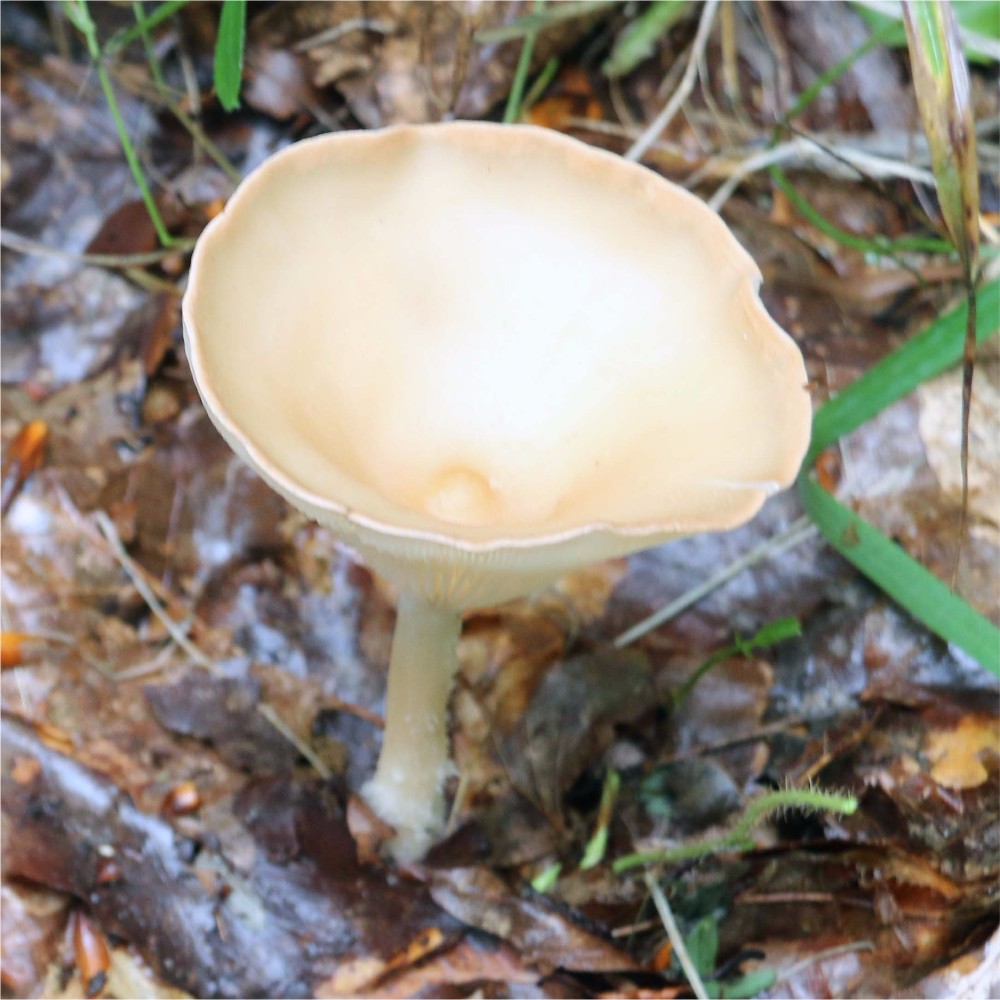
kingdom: Fungi
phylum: Basidiomycota
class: Agaricomycetes
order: Agaricales
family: Tricholomataceae
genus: Infundibulicybe
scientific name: Infundibulicybe gibba
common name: almindelig tragthat
